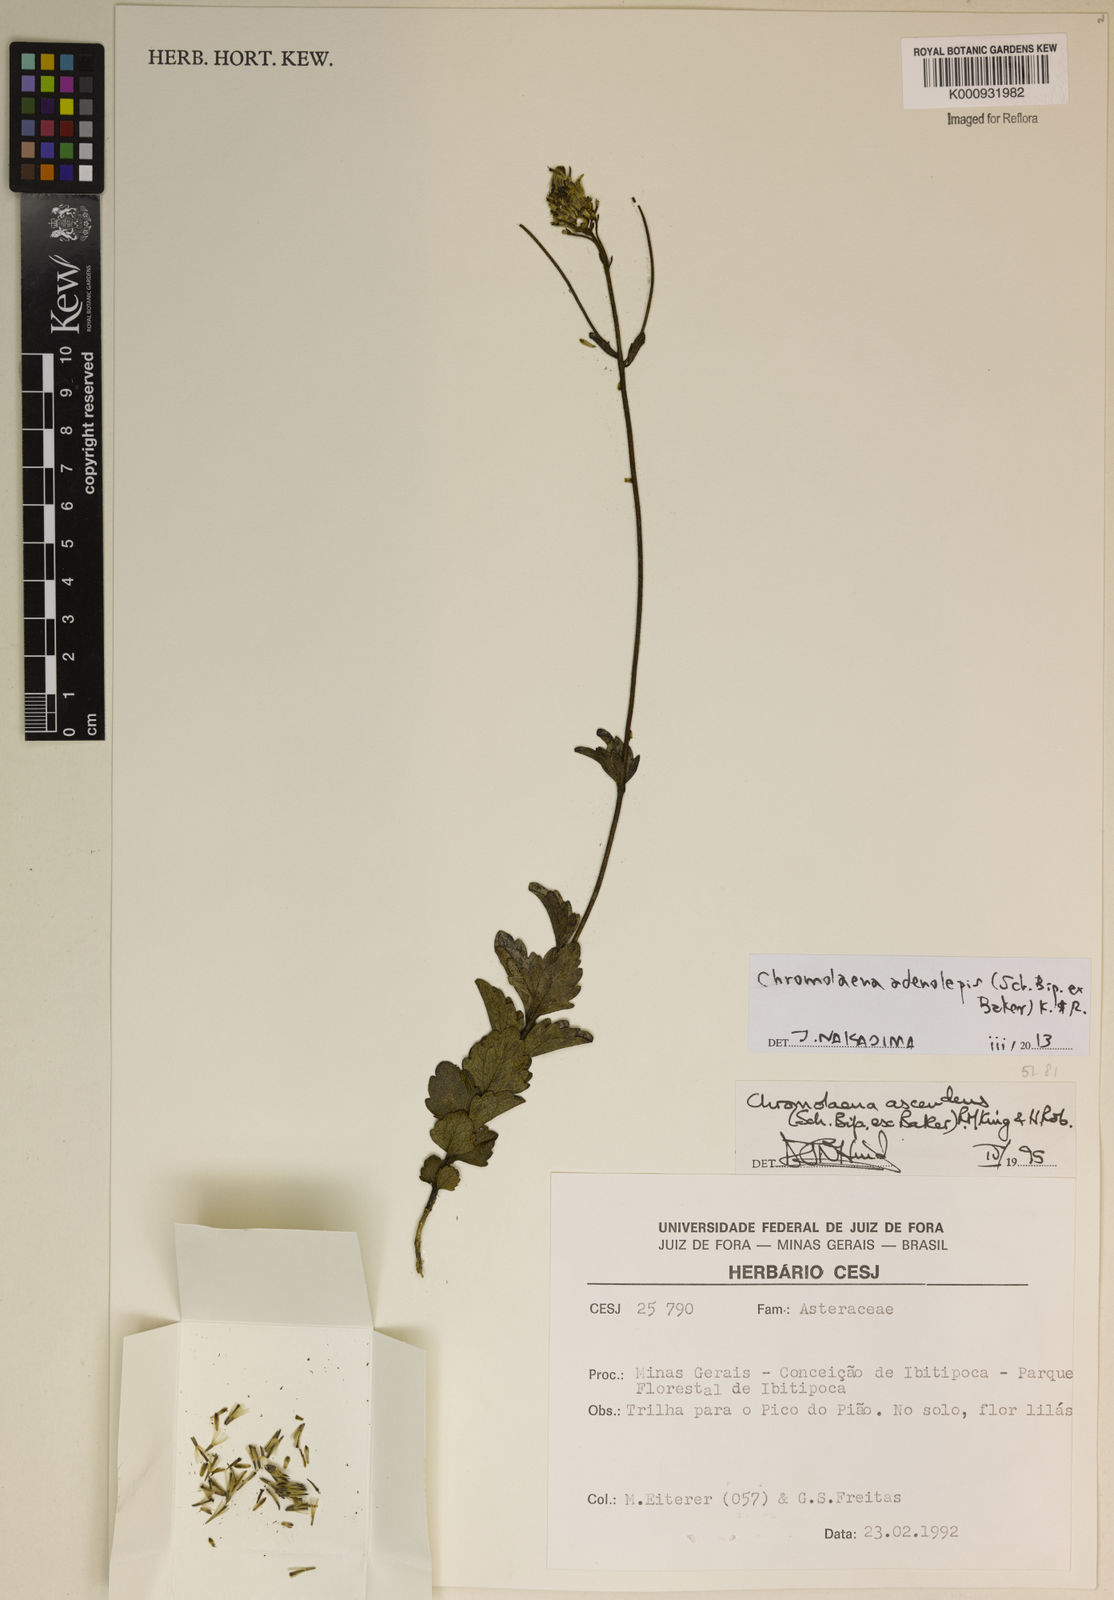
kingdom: Plantae
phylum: Tracheophyta
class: Magnoliopsida
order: Asterales
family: Asteraceae
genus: Chromolaena
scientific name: Chromolaena adenolepis
